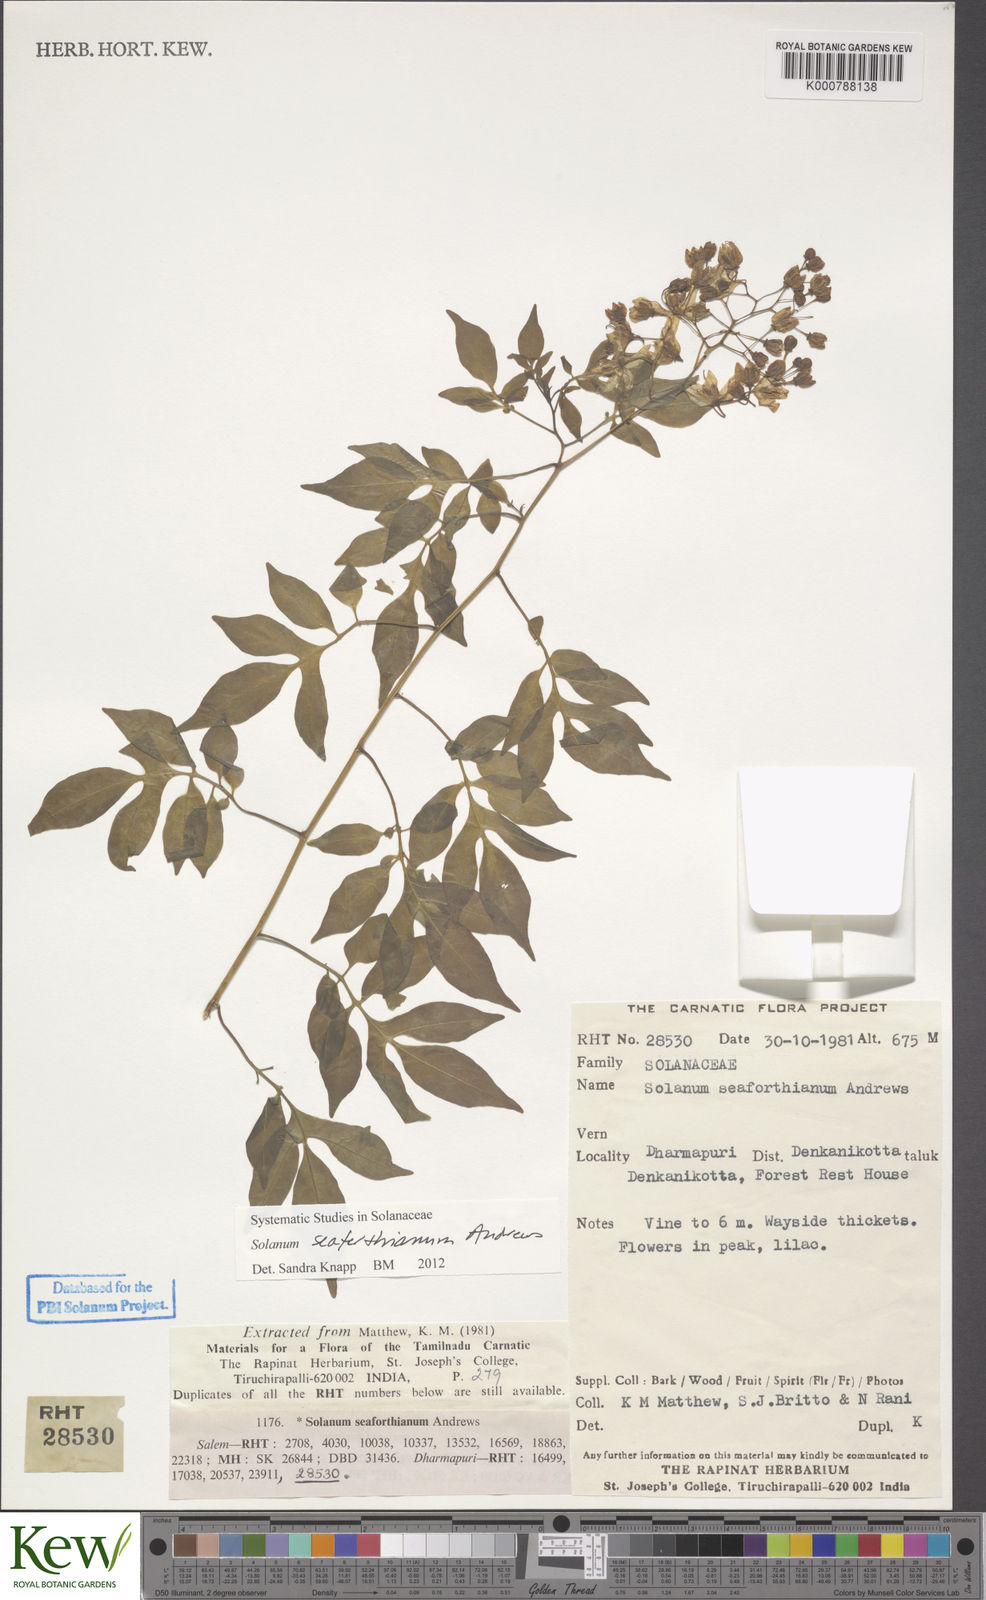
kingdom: Plantae
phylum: Tracheophyta
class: Magnoliopsida
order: Solanales
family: Solanaceae
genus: Solanum
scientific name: Solanum seaforthianum
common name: Brazilian nightshade
